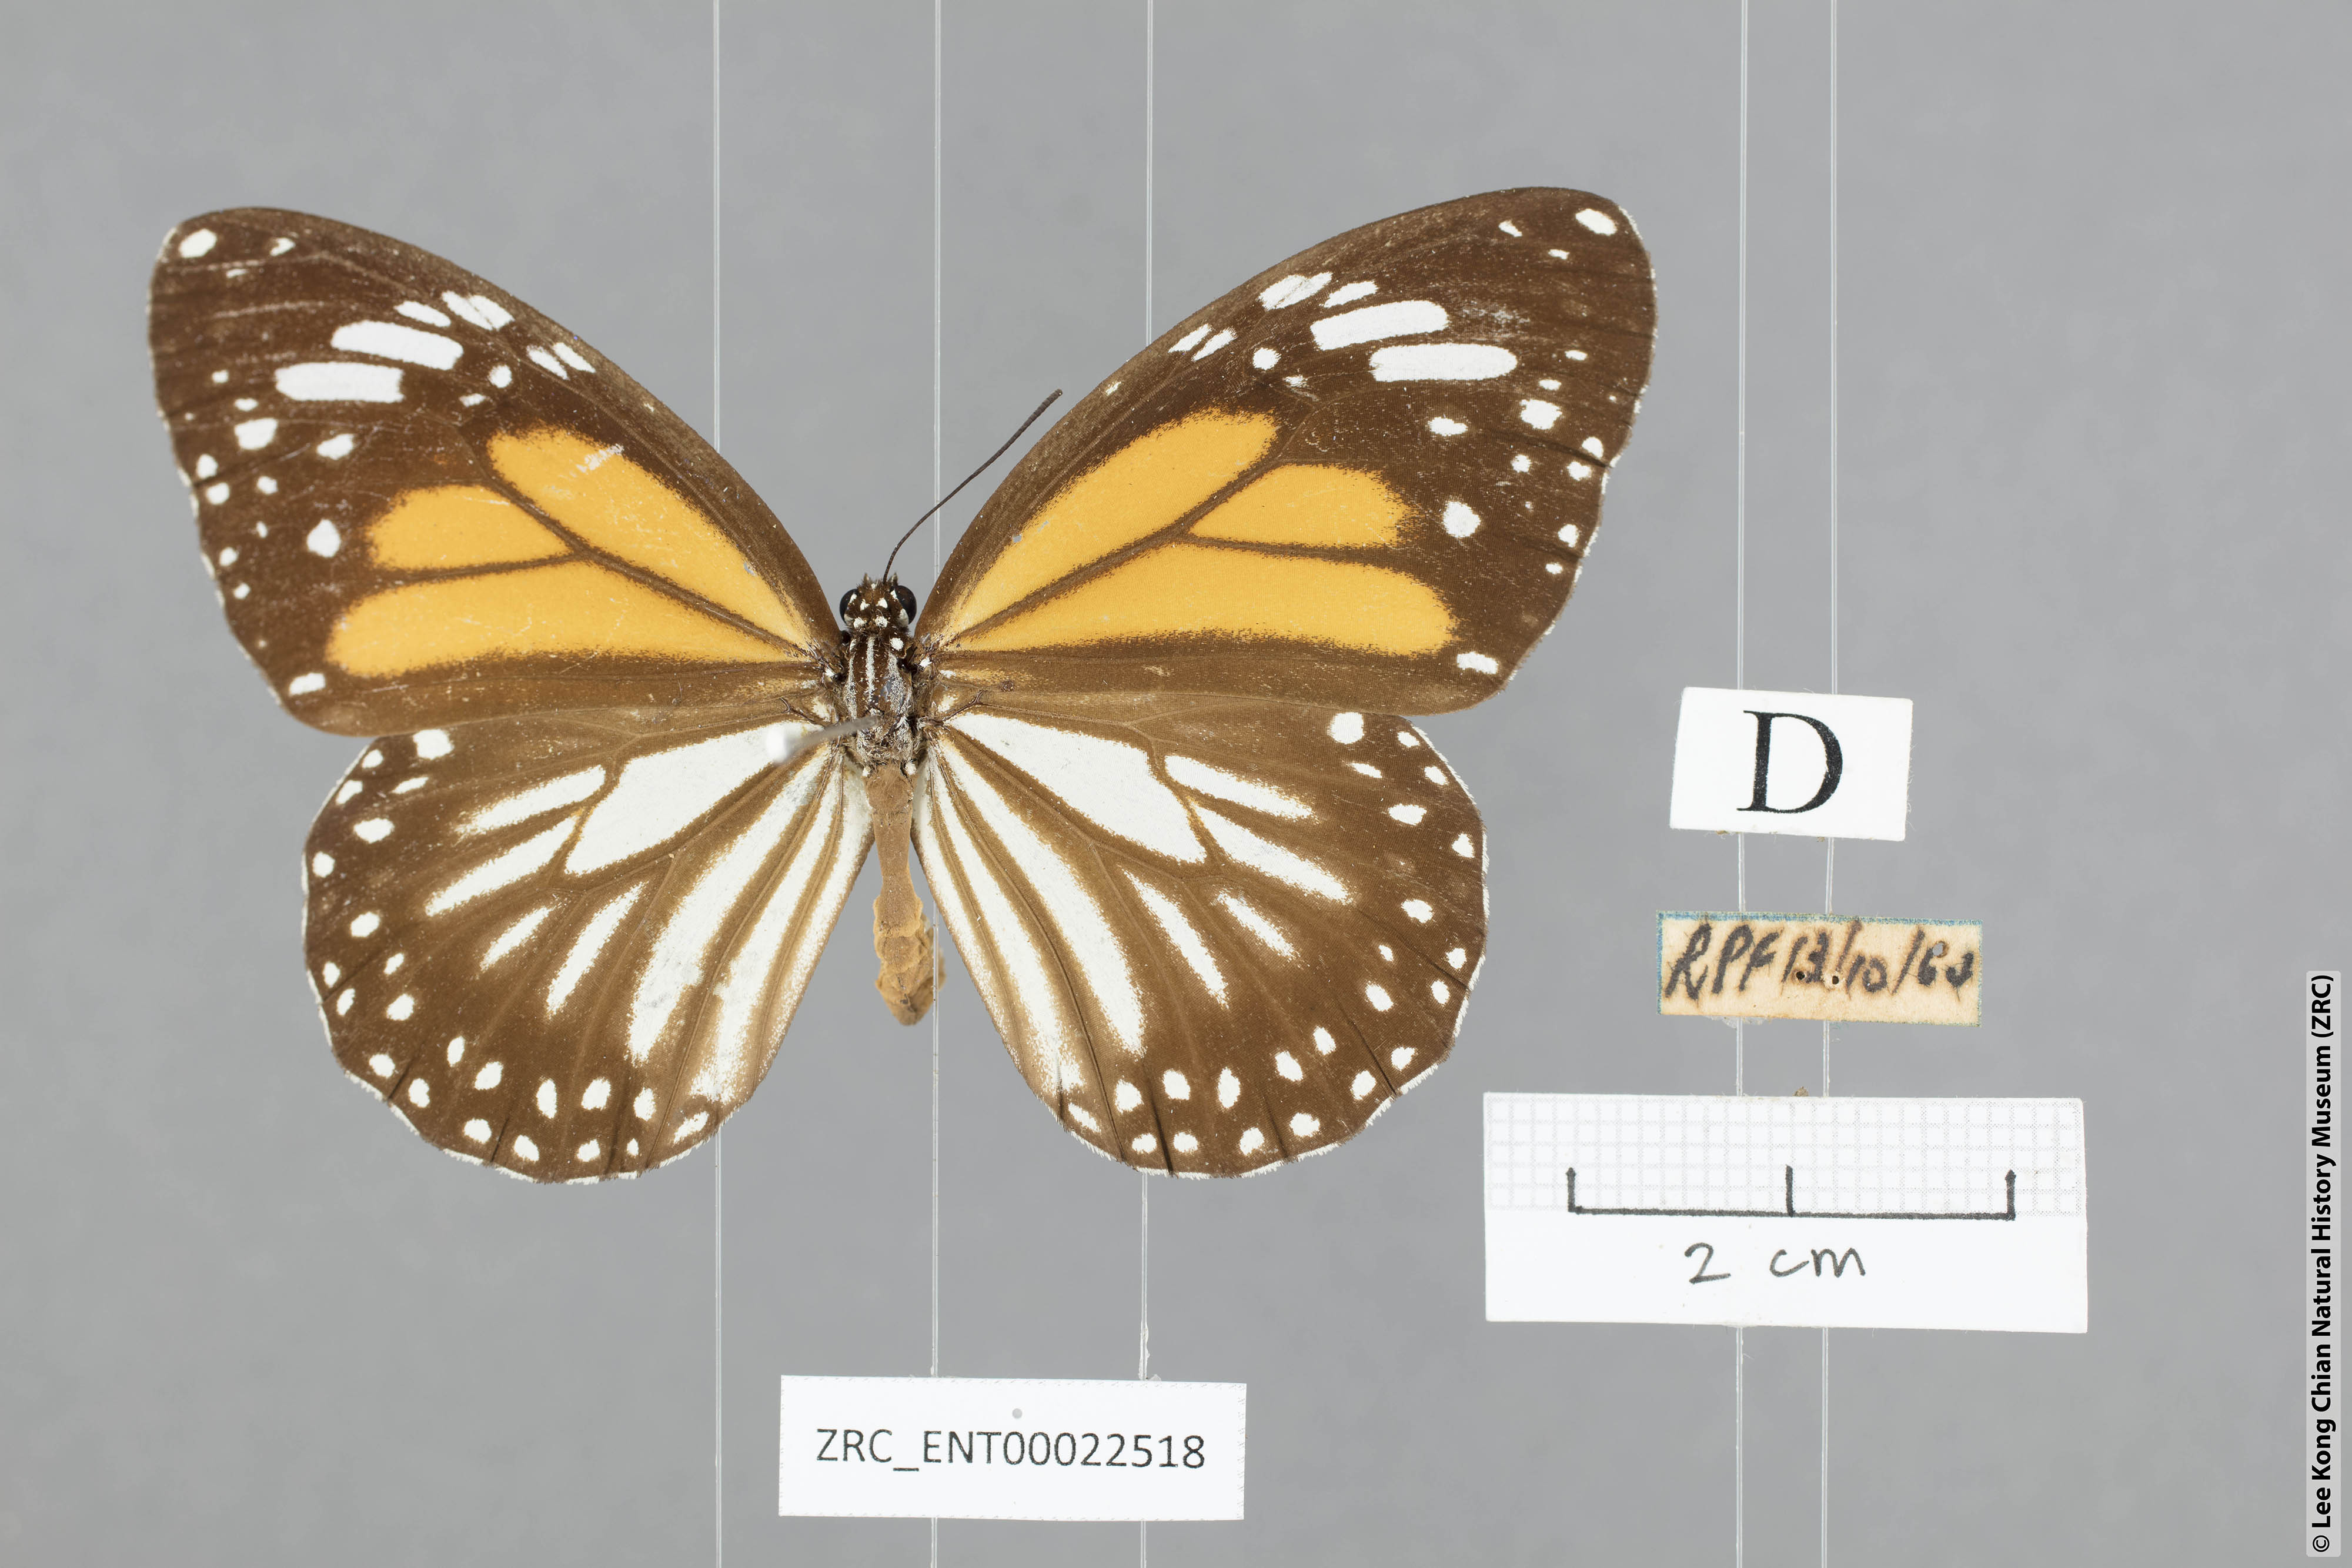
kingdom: Animalia
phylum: Arthropoda
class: Insecta
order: Lepidoptera
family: Nymphalidae
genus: Danaus
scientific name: Danaus melanippus
